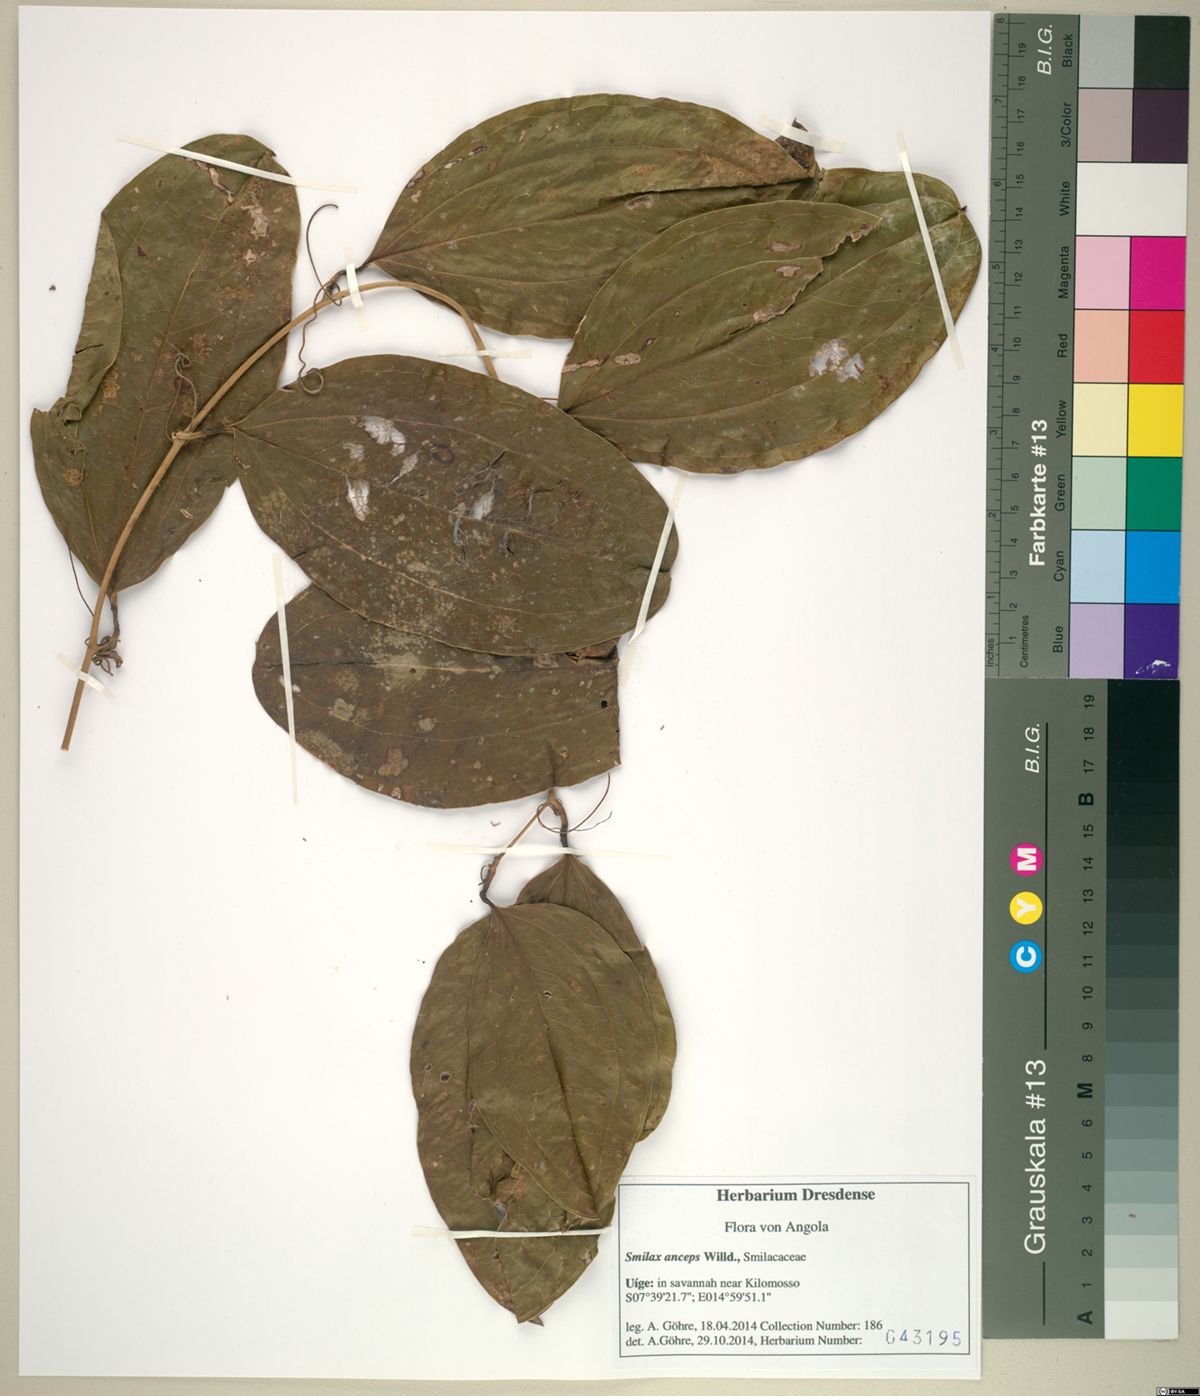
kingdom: Plantae
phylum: Tracheophyta
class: Liliopsida
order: Liliales
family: Smilacaceae
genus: Smilax
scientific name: Smilax anceps
